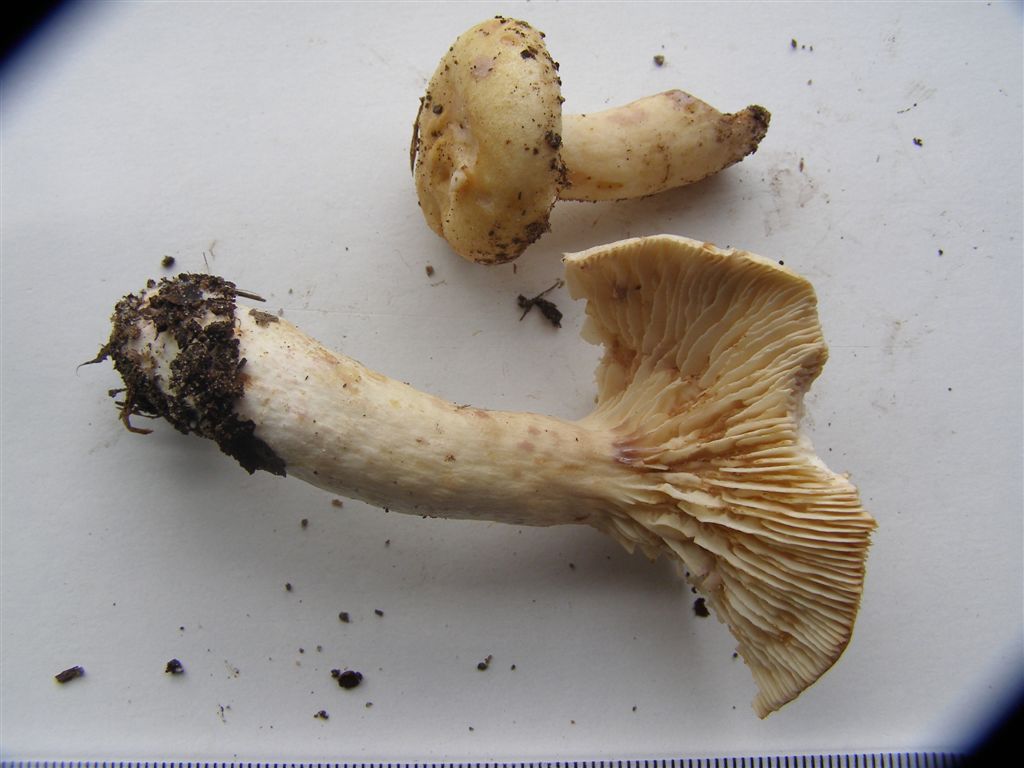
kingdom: Fungi
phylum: Basidiomycota
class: Agaricomycetes
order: Russulales
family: Russulaceae
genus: Lactarius
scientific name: Lactarius aspideus
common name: pile-mælkehat
